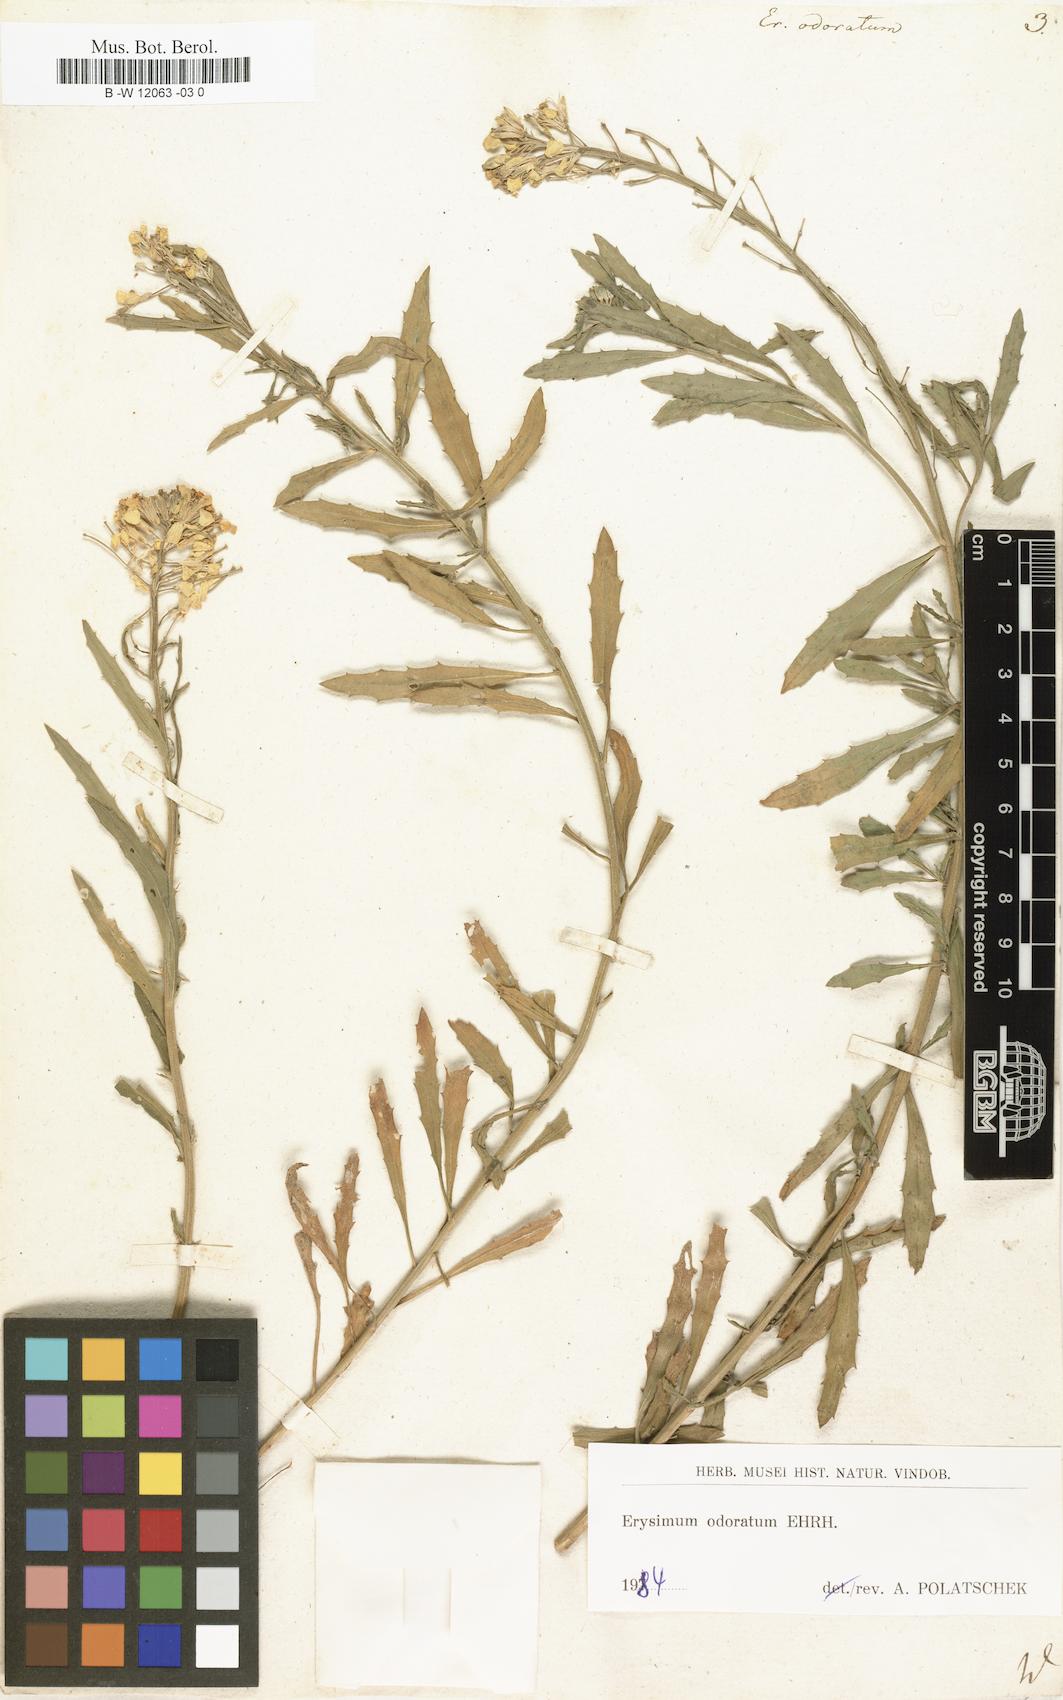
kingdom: Plantae
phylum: Tracheophyta
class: Magnoliopsida
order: Brassicales
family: Brassicaceae
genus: Erysimum
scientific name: Erysimum odoratum
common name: Smelly wallflower
